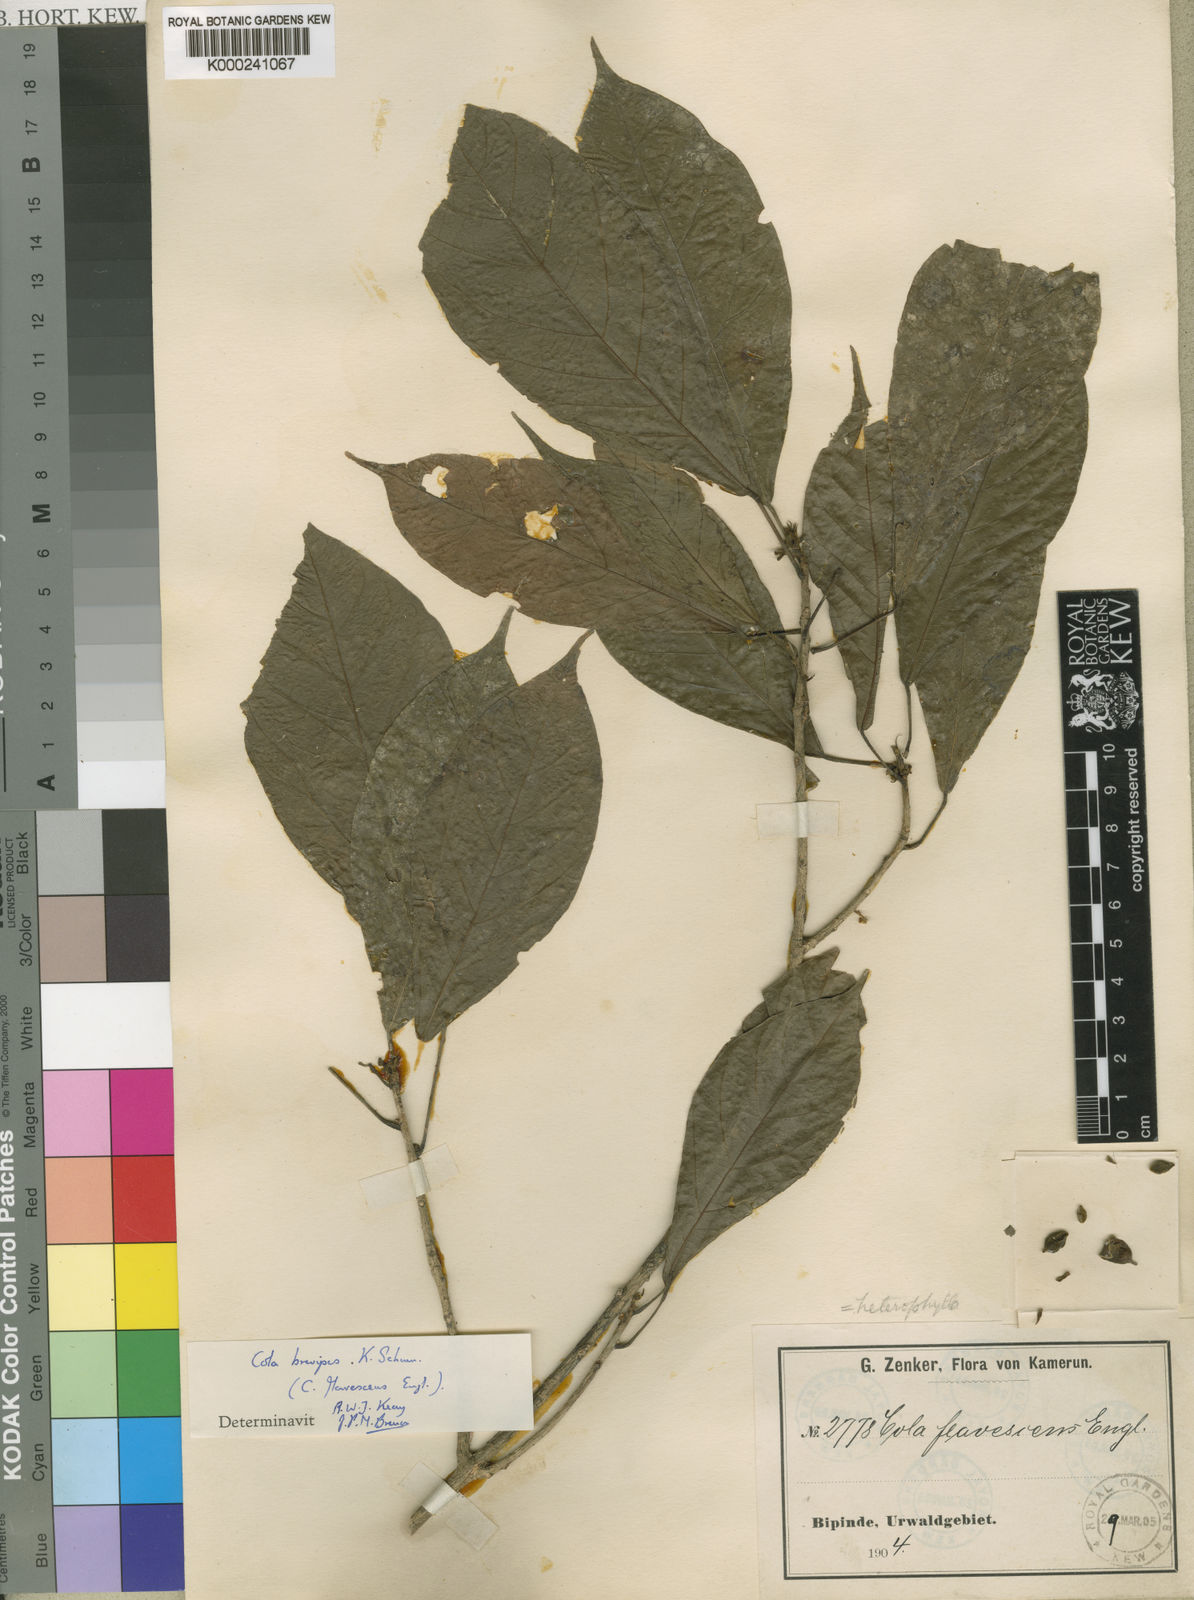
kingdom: Plantae
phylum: Tracheophyta
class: Magnoliopsida
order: Malvales
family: Malvaceae
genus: Cola
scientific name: Cola brevipes
